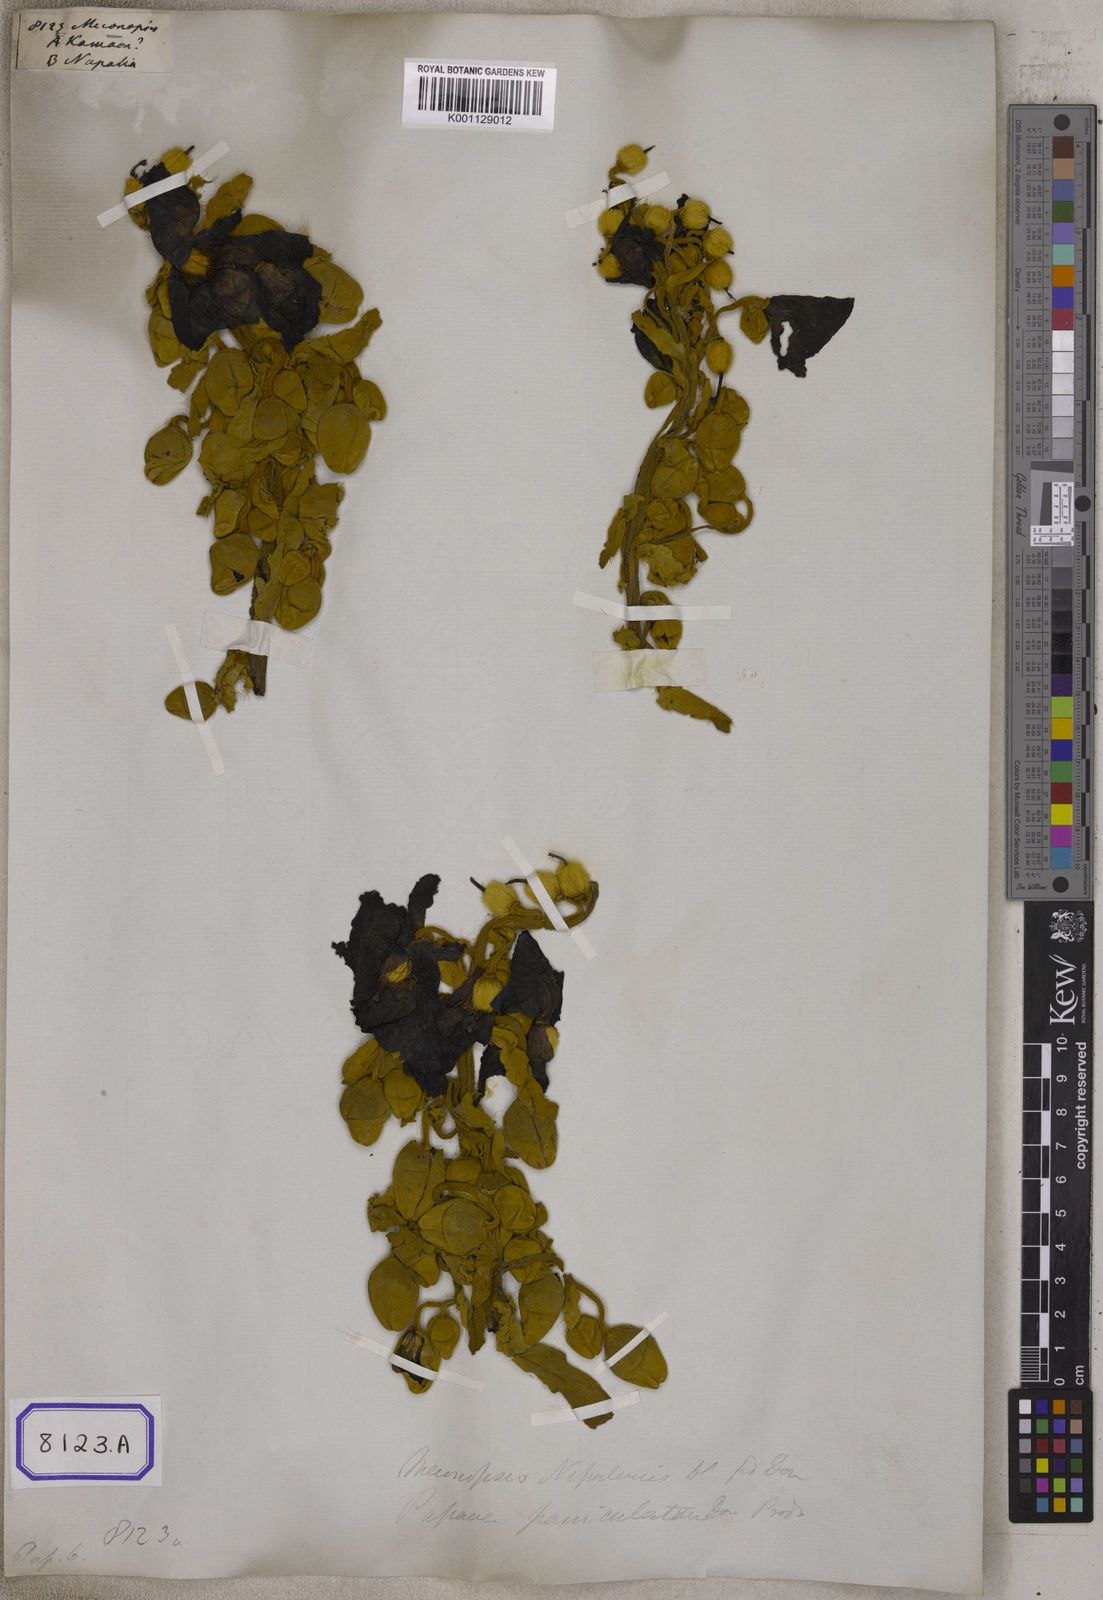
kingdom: Plantae
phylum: Tracheophyta
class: Magnoliopsida
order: Ranunculales
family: Papaveraceae
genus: Meconopsis
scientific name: Meconopsis
